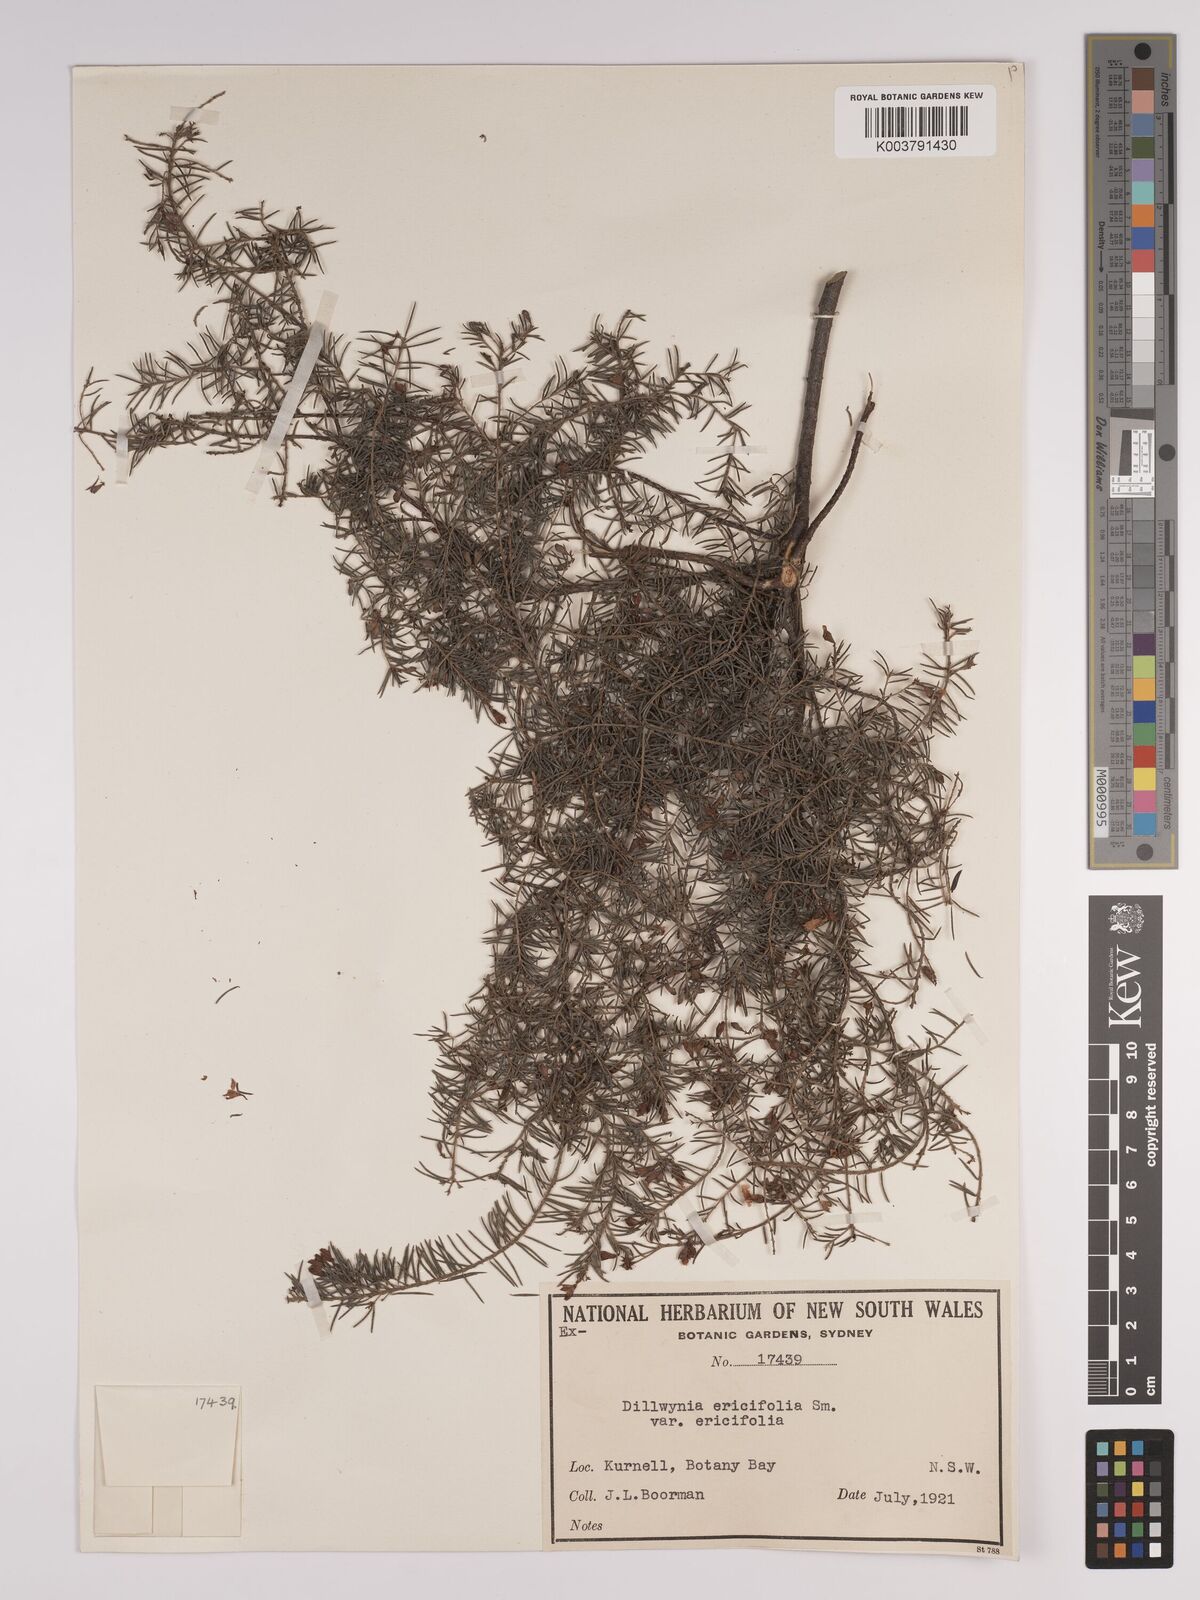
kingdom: Plantae
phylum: Tracheophyta
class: Magnoliopsida
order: Fabales
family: Fabaceae
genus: Dillwynia
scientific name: Dillwynia retorta
